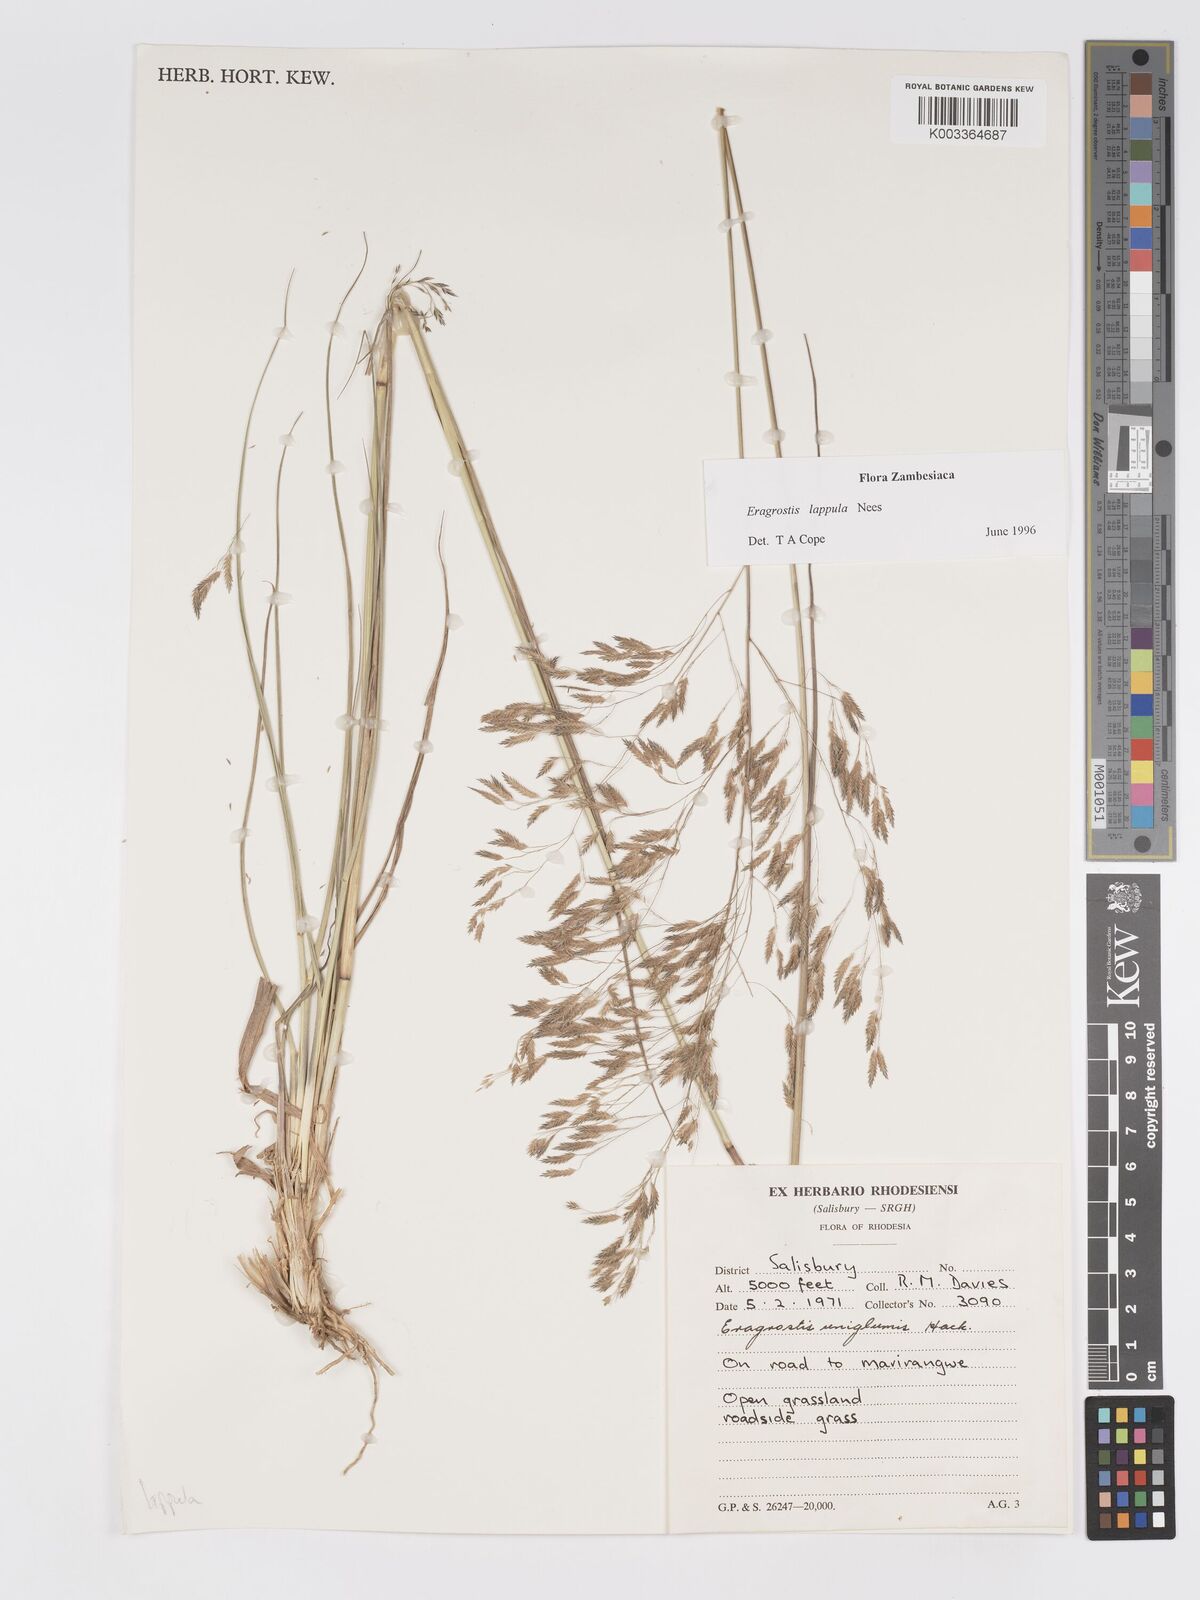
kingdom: Plantae
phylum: Tracheophyta
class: Liliopsida
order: Poales
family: Poaceae
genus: Eragrostis
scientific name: Eragrostis lappula
